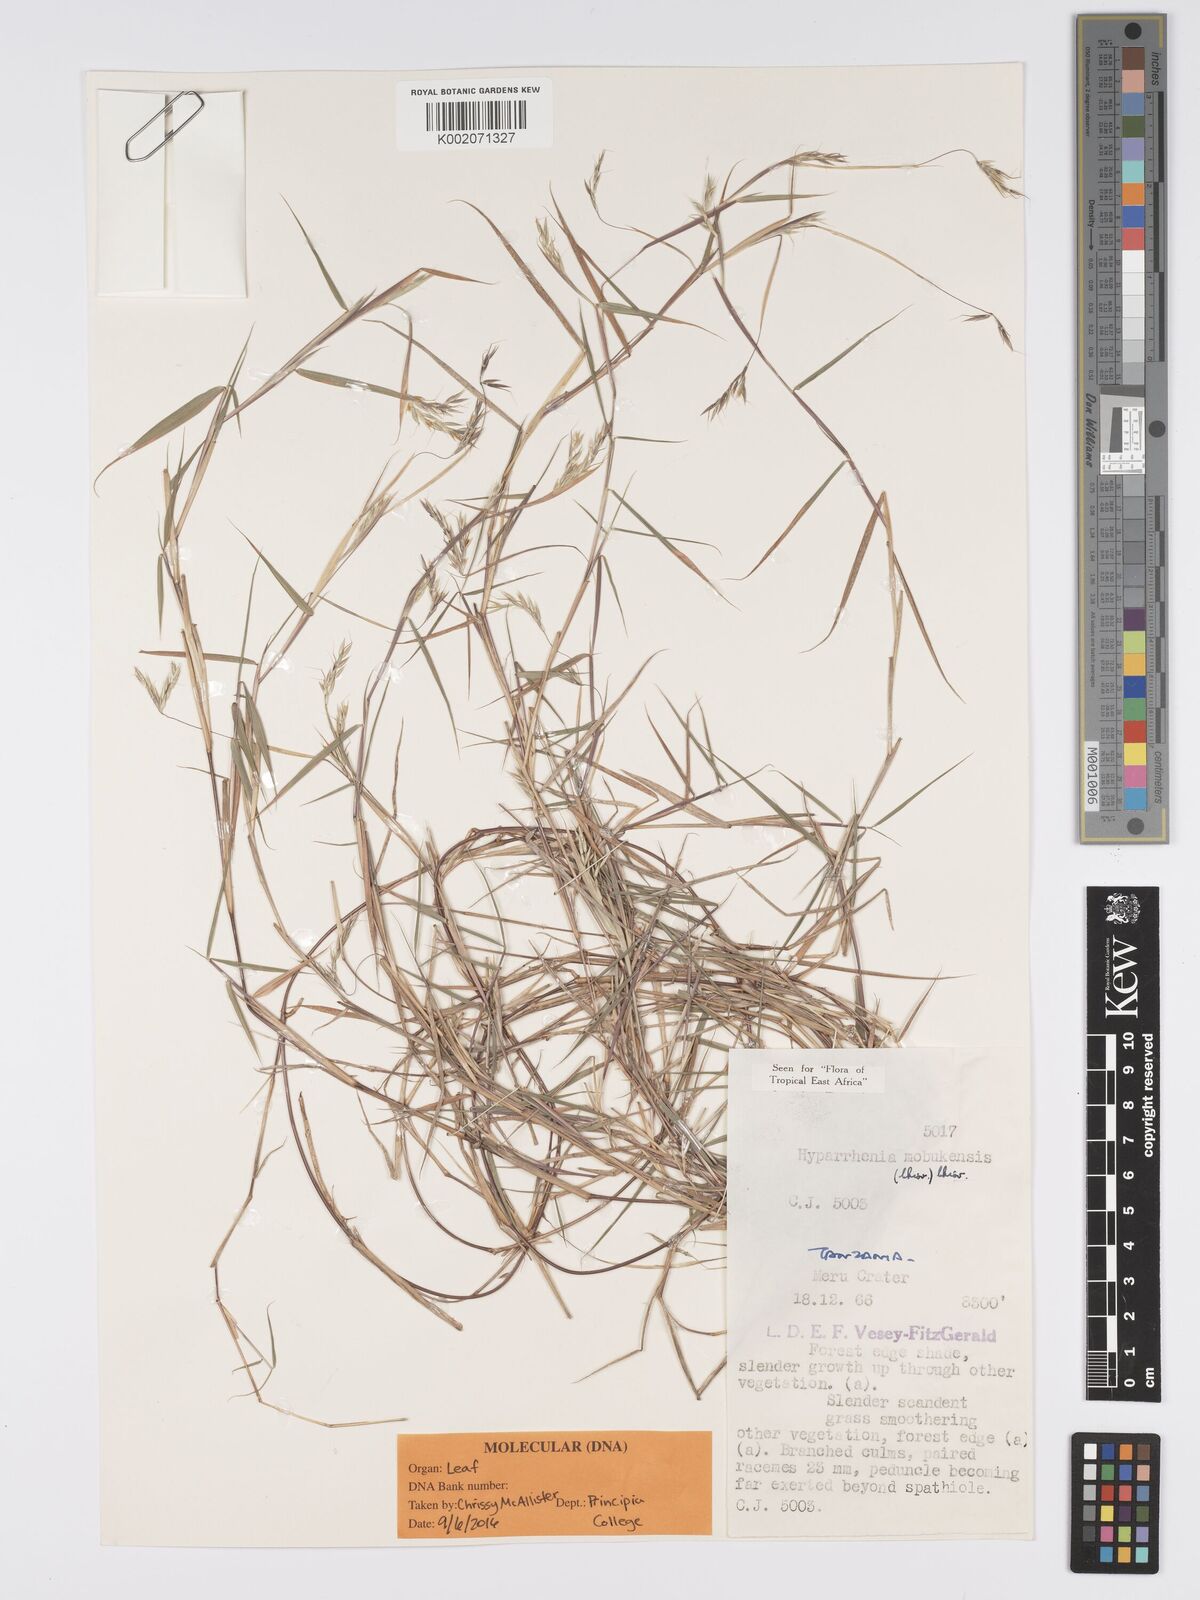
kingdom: Plantae
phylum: Tracheophyta
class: Liliopsida
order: Poales
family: Poaceae
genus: Hyparrhenia
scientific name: Hyparrhenia mobukensis
